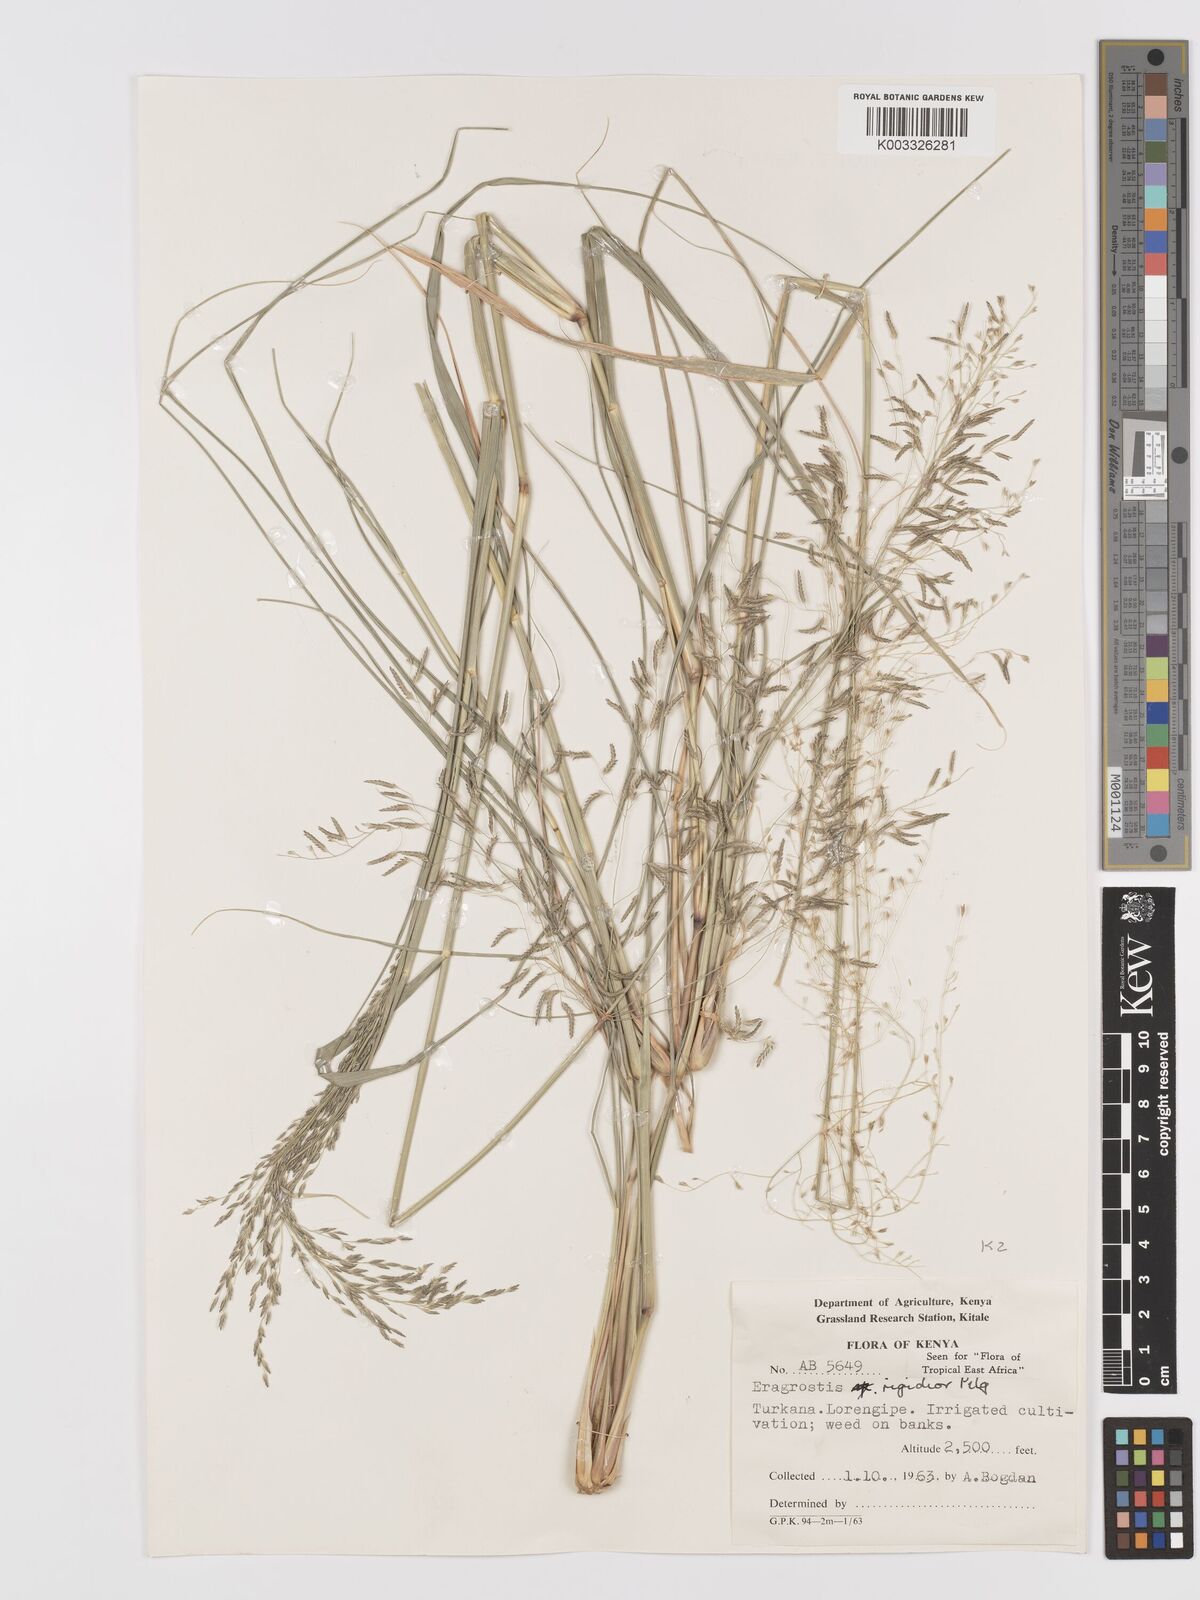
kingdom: Plantae
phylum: Tracheophyta
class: Liliopsida
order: Poales
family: Poaceae
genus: Eragrostis
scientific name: Eragrostis cylindriflora
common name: Cylinderflower lovegrass
